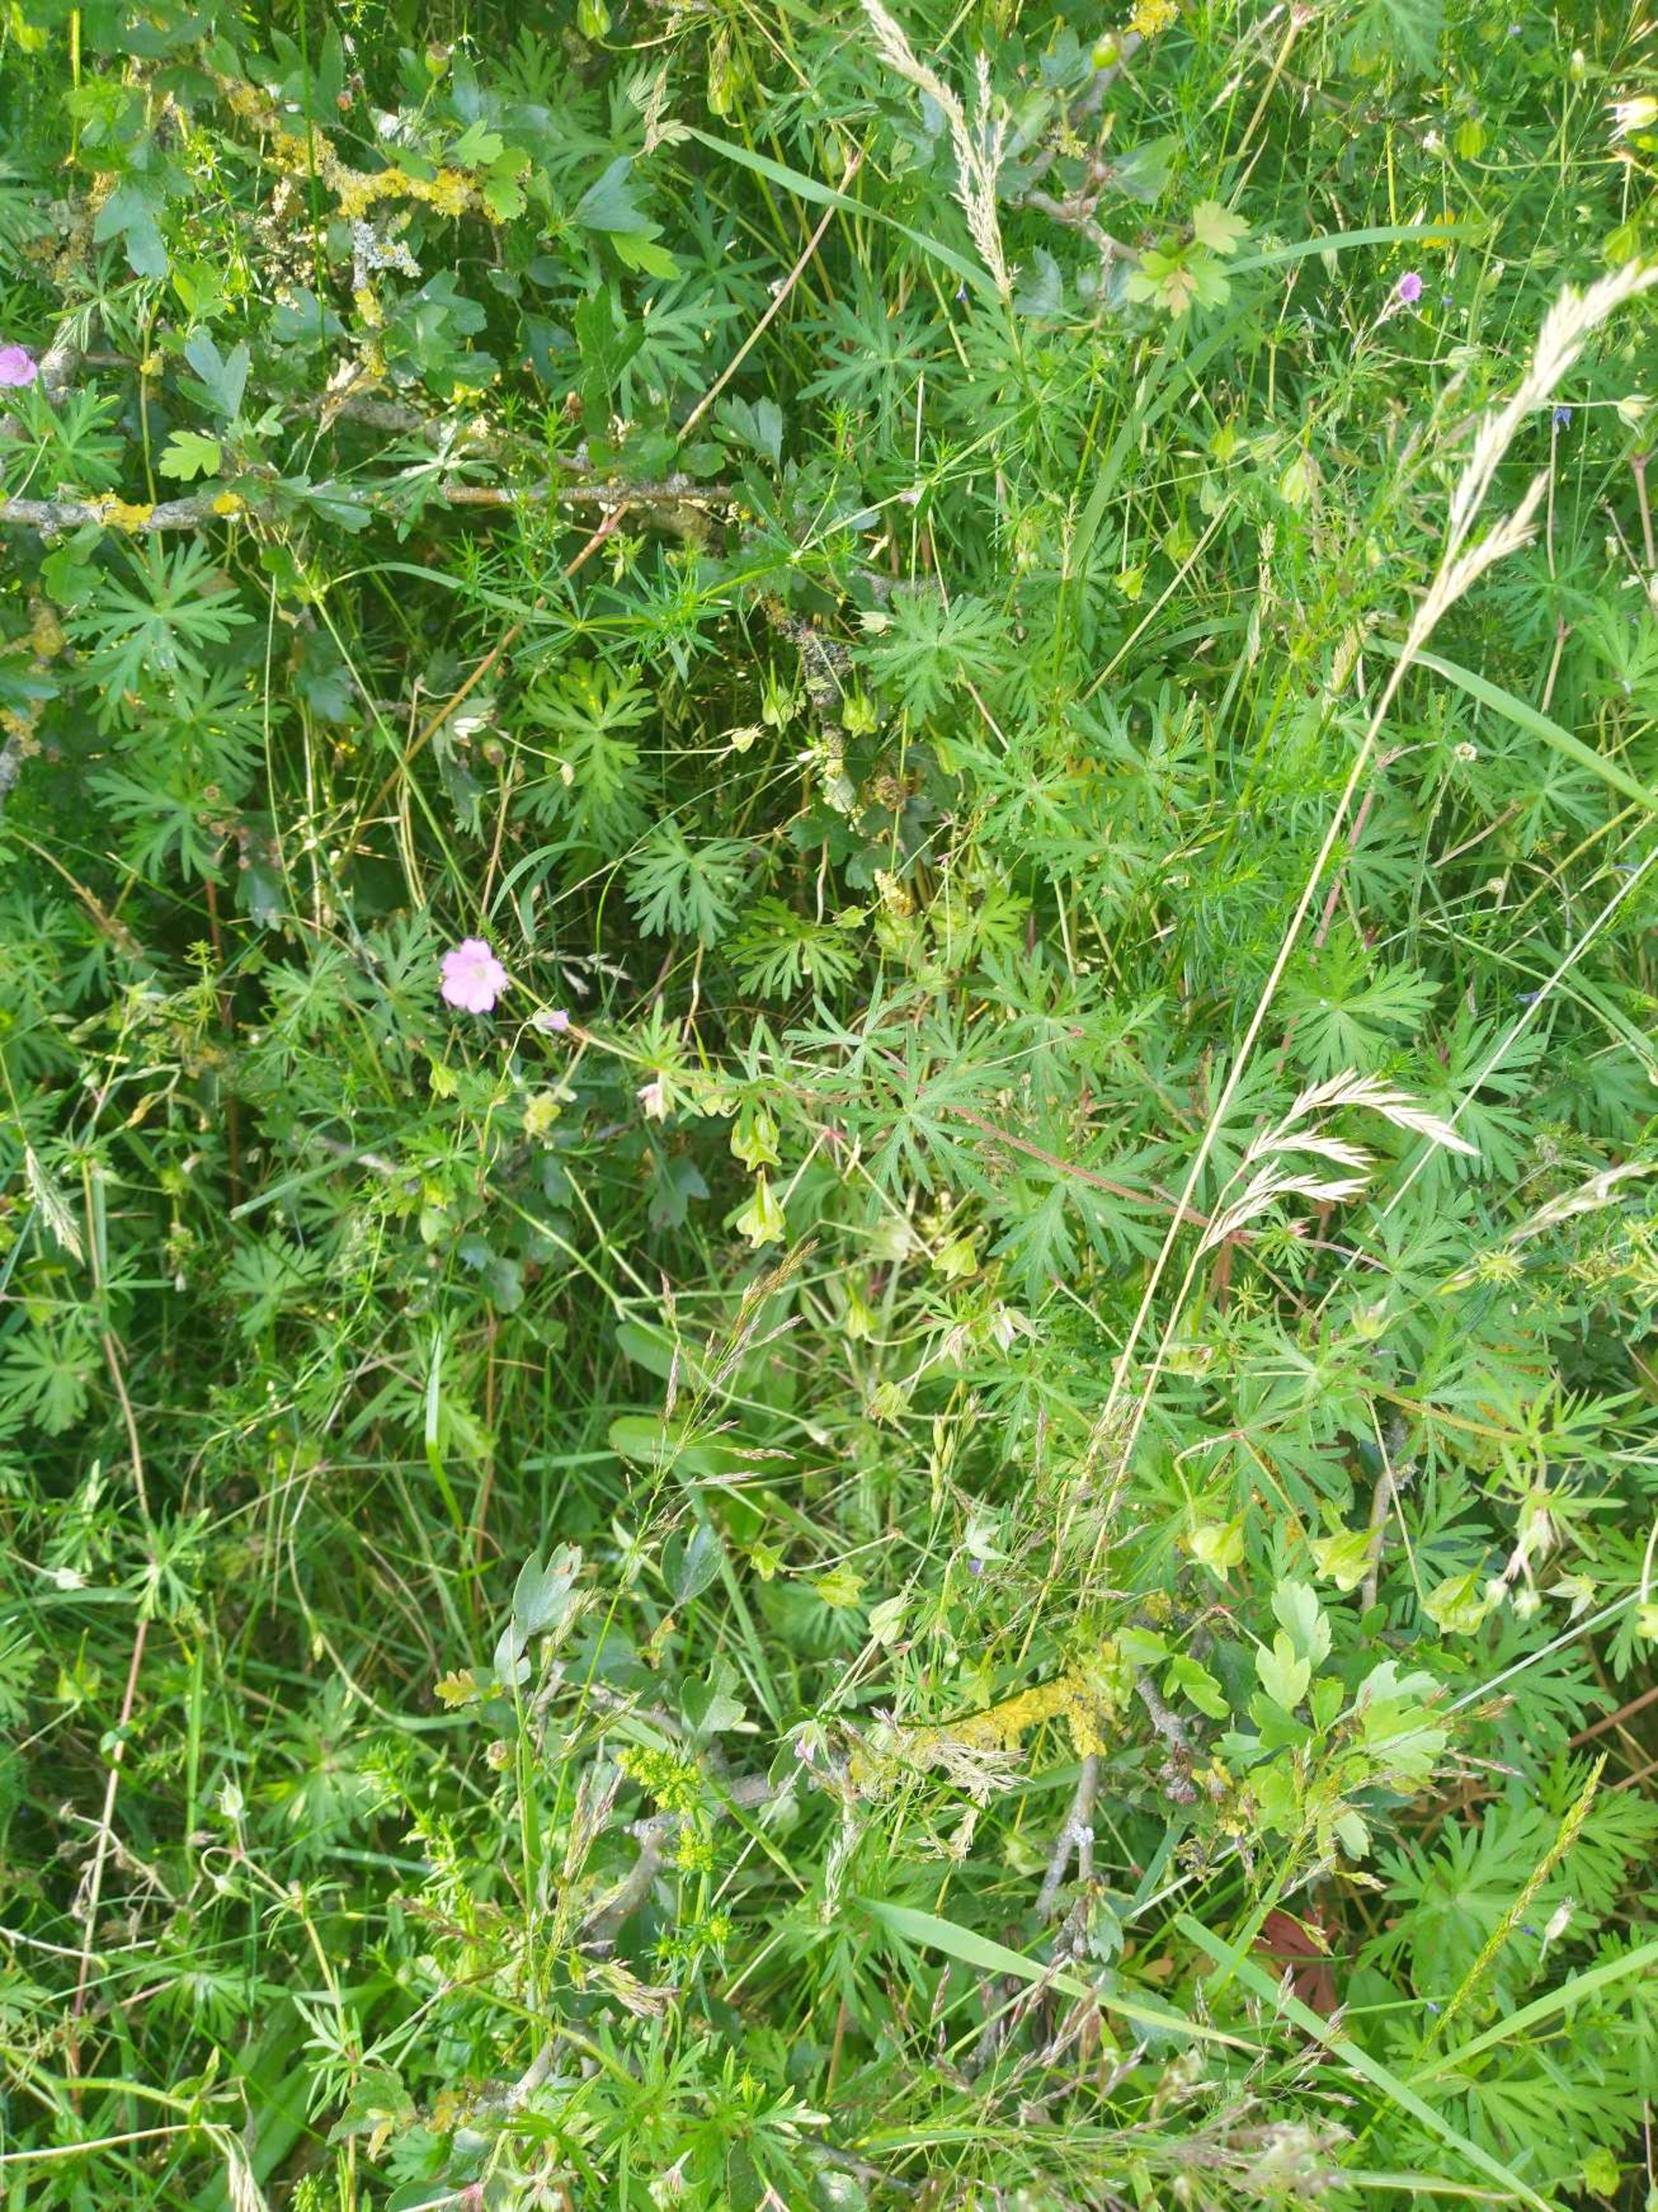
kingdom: Plantae
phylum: Tracheophyta
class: Magnoliopsida
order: Geraniales
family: Geraniaceae
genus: Geranium
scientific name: Geranium columbinum
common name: Storbægret storkenæb
